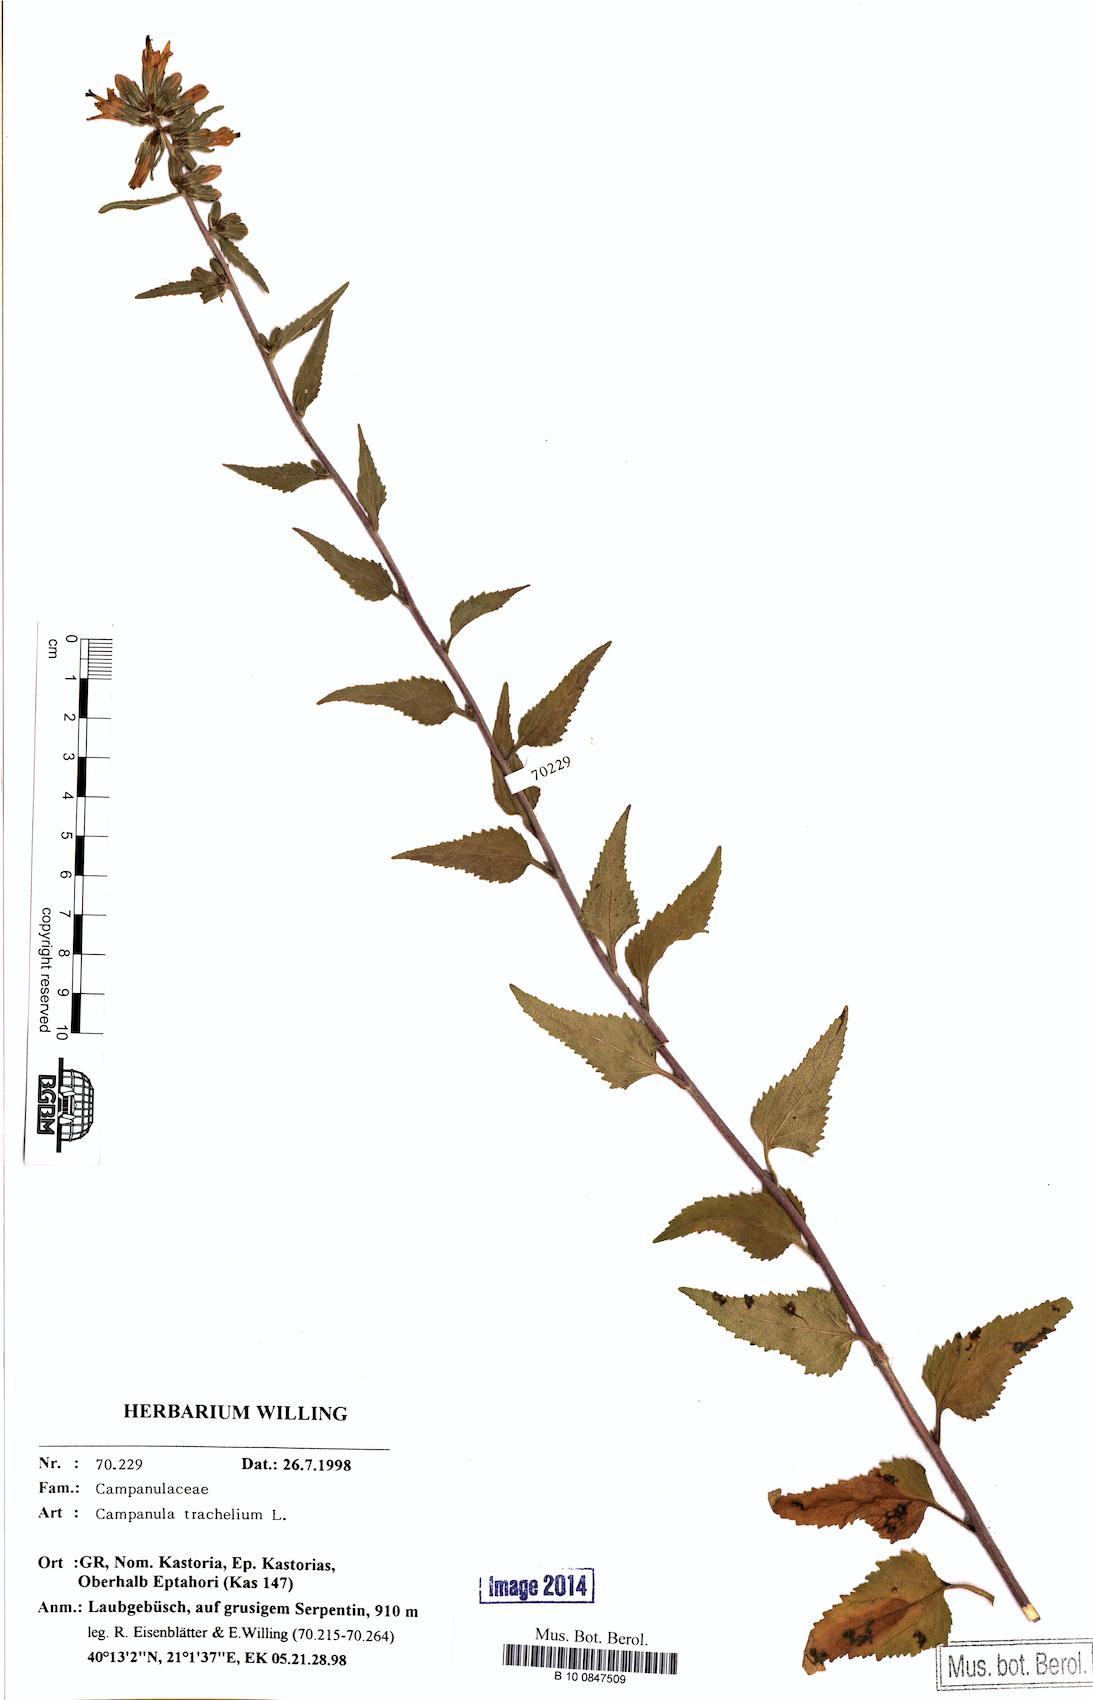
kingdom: Plantae
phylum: Tracheophyta
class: Magnoliopsida
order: Asterales
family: Campanulaceae
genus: Campanula
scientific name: Campanula trachelium
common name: Nettle-leaved bellflower
